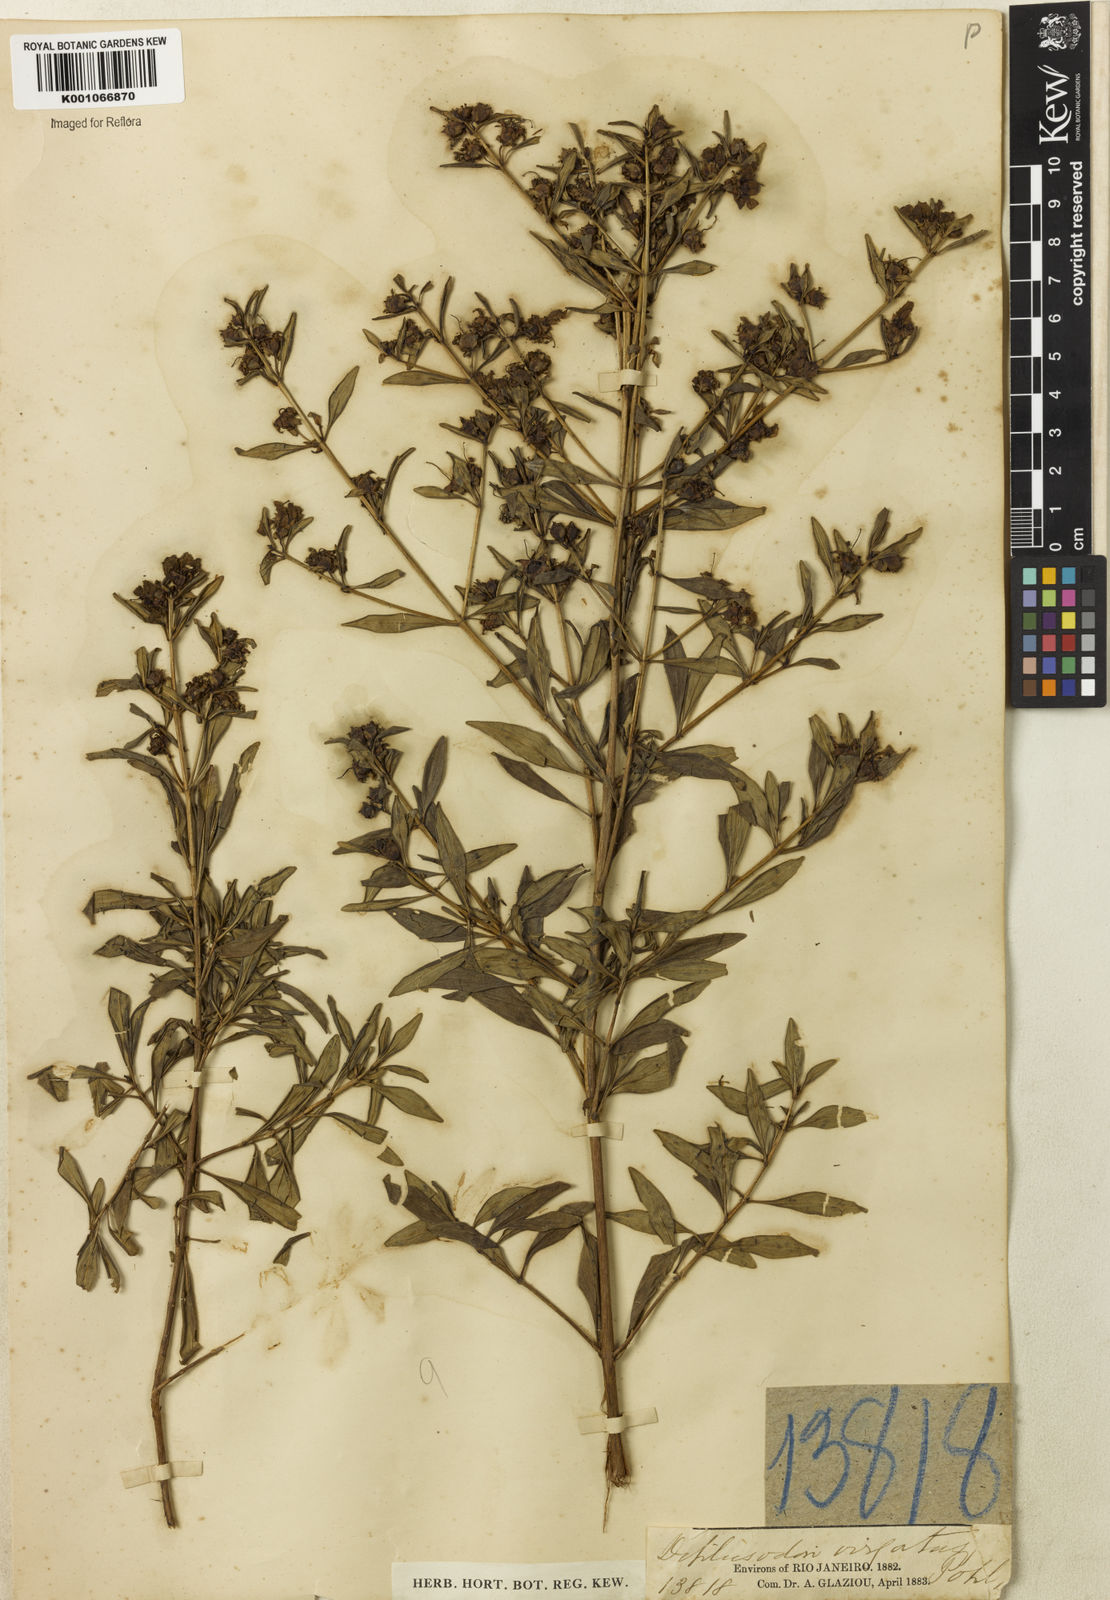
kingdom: Plantae
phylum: Tracheophyta
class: Magnoliopsida
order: Myrtales
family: Lythraceae
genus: Diplusodon
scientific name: Diplusodon virgatus
